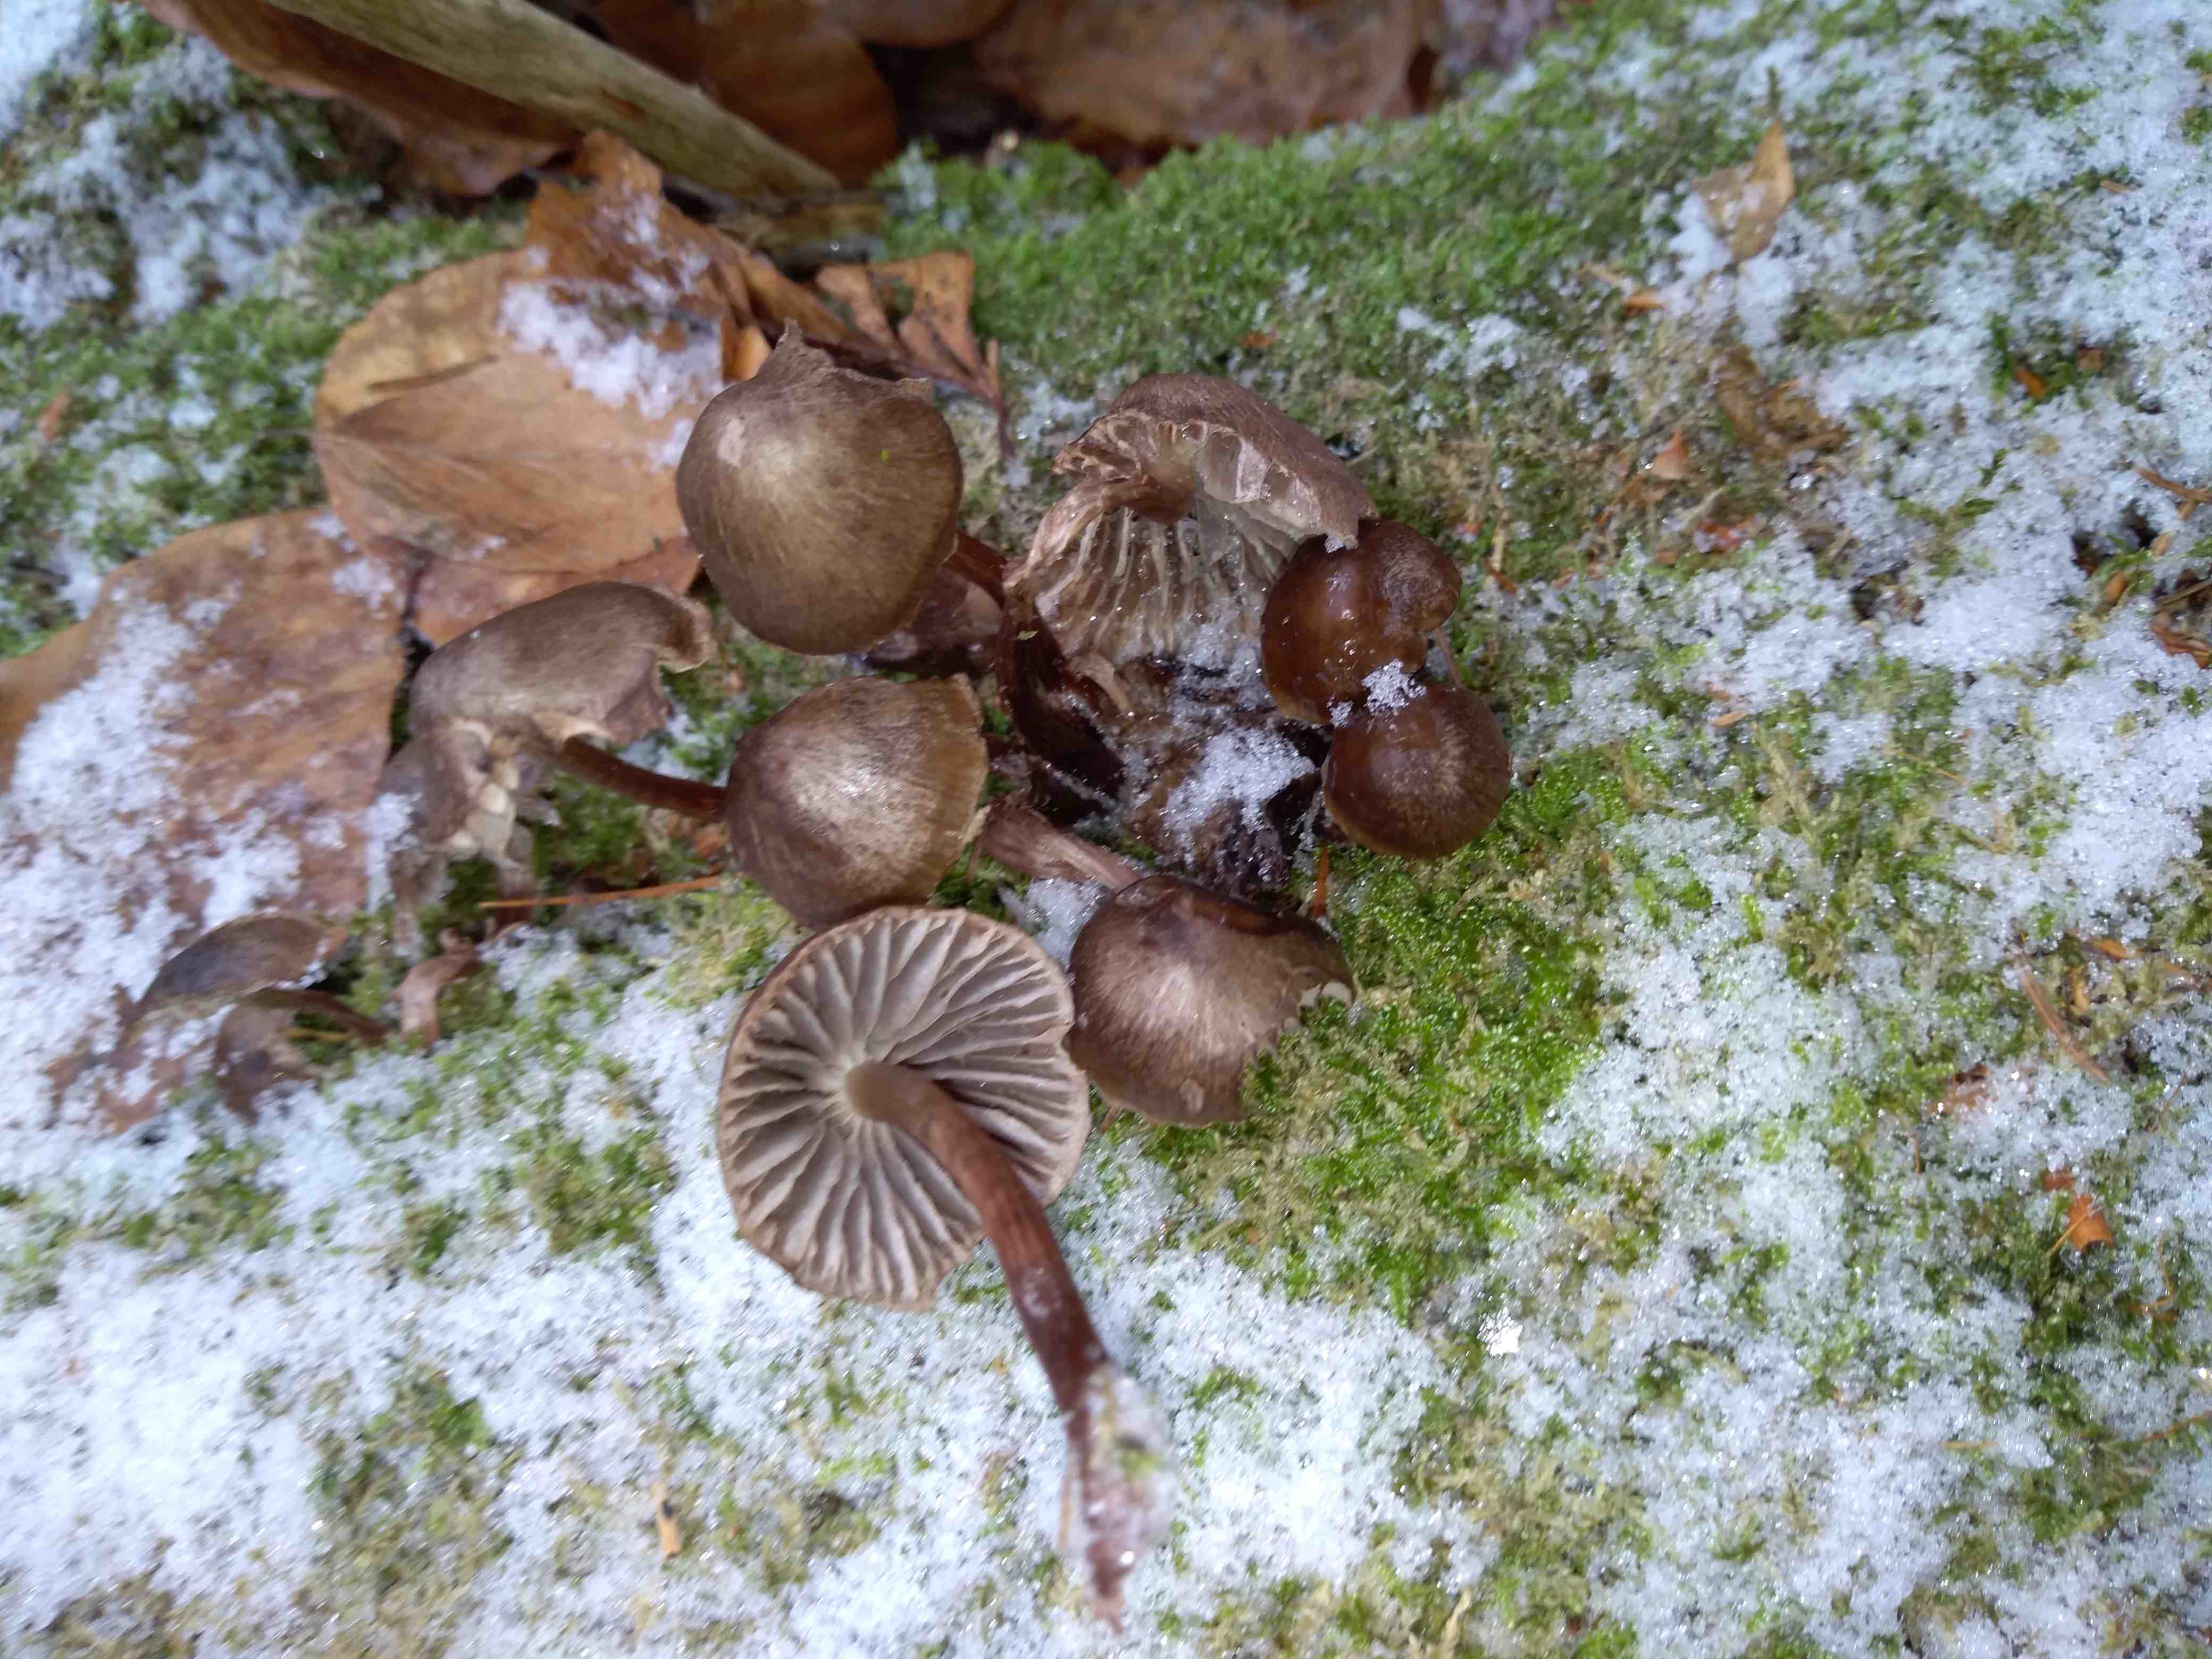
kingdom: Fungi
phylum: Basidiomycota
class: Agaricomycetes
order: Agaricales
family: Mycenaceae
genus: Mycena
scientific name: Mycena tintinnabulum
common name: vinter-huesvamp
